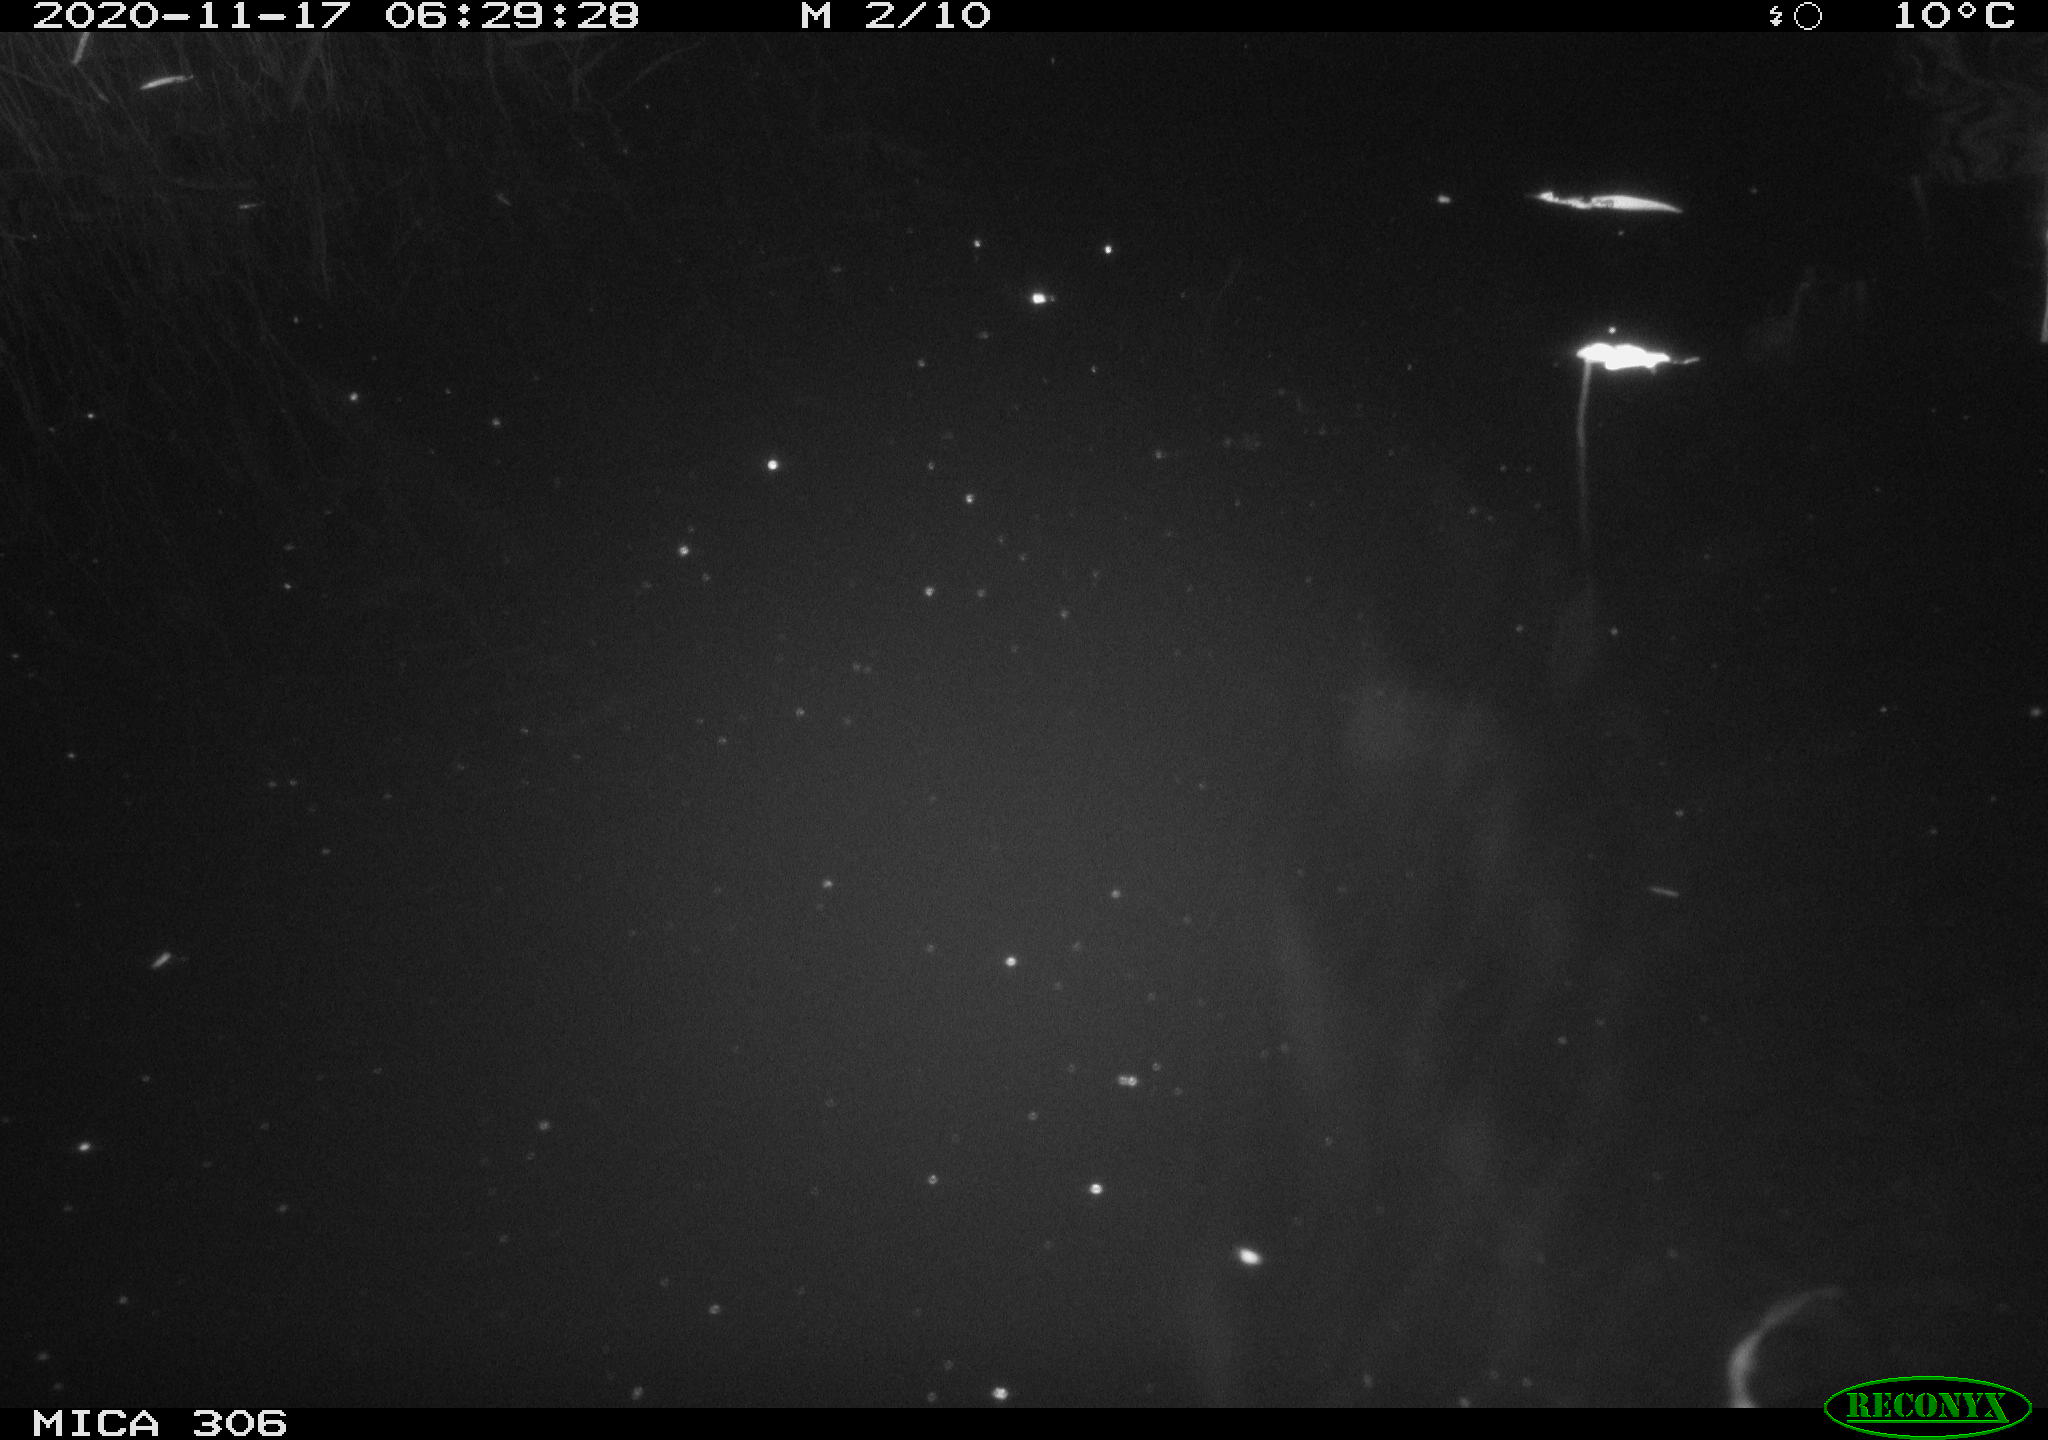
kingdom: Animalia
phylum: Chordata
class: Mammalia
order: Rodentia
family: Muridae
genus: Rattus
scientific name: Rattus norvegicus
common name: Brown rat
